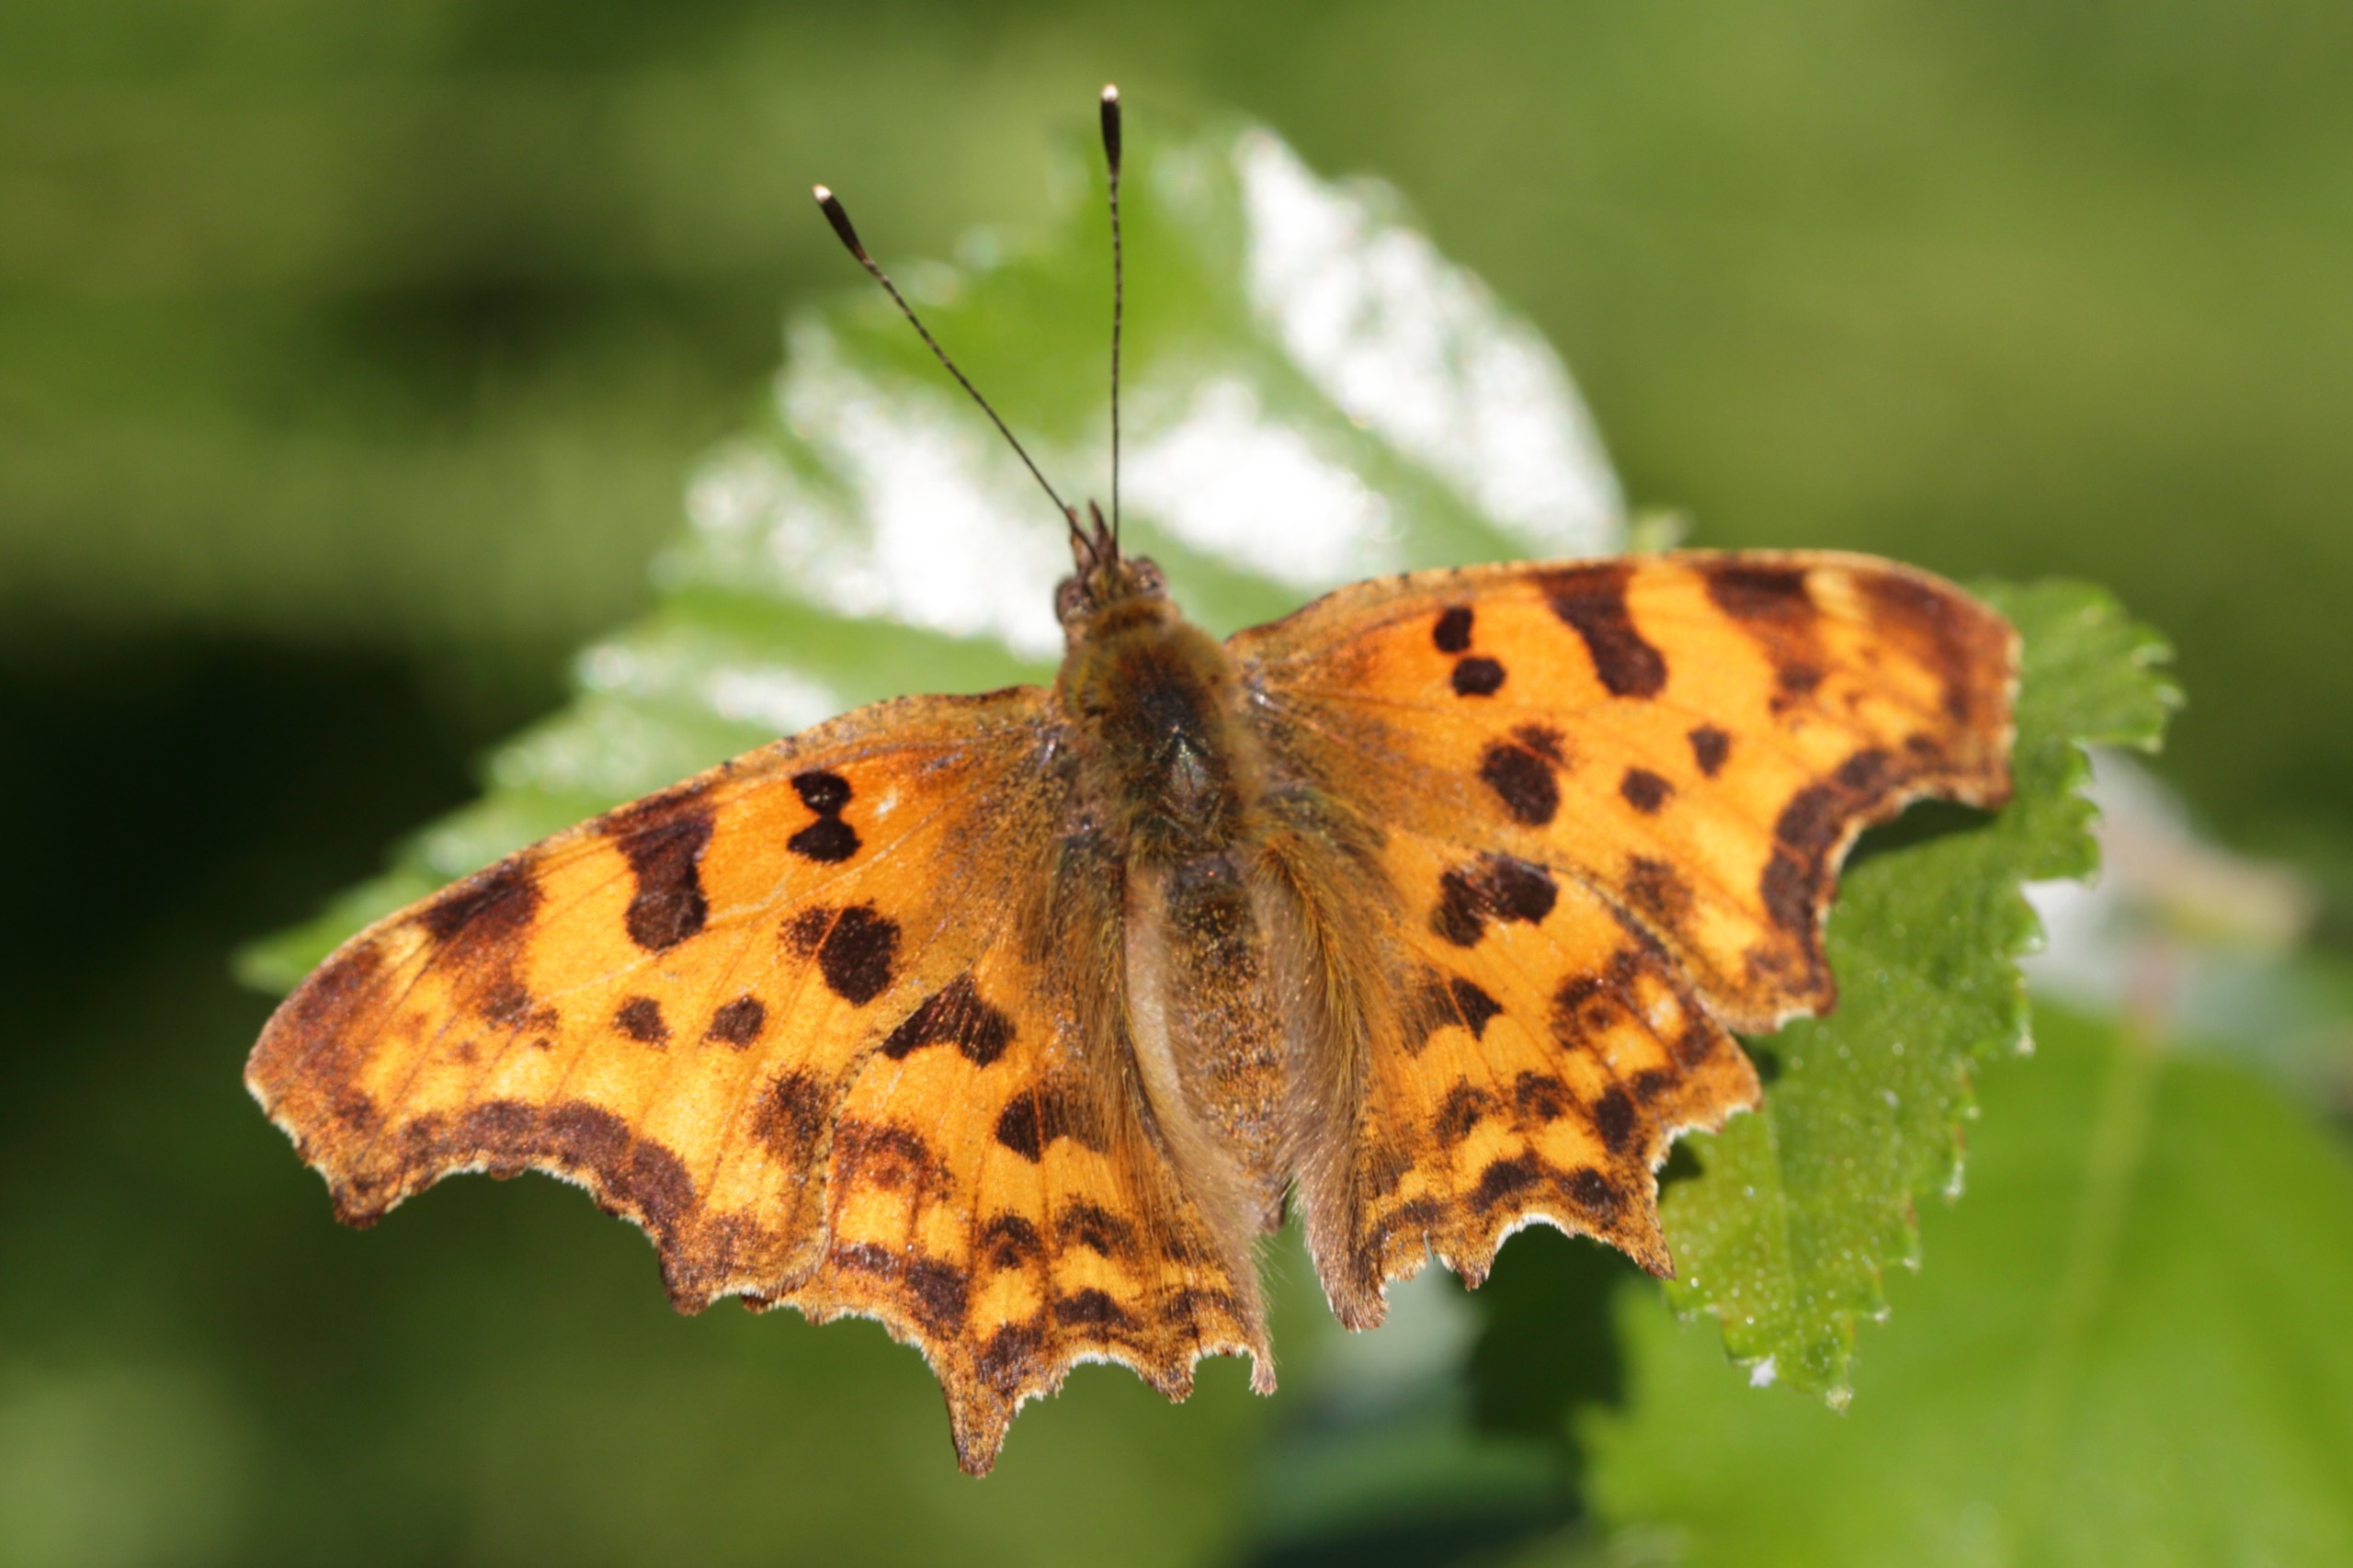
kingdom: Animalia
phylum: Arthropoda
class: Insecta
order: Lepidoptera
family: Nymphalidae
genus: Polygonia
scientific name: Polygonia c-album
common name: Det hvide C
